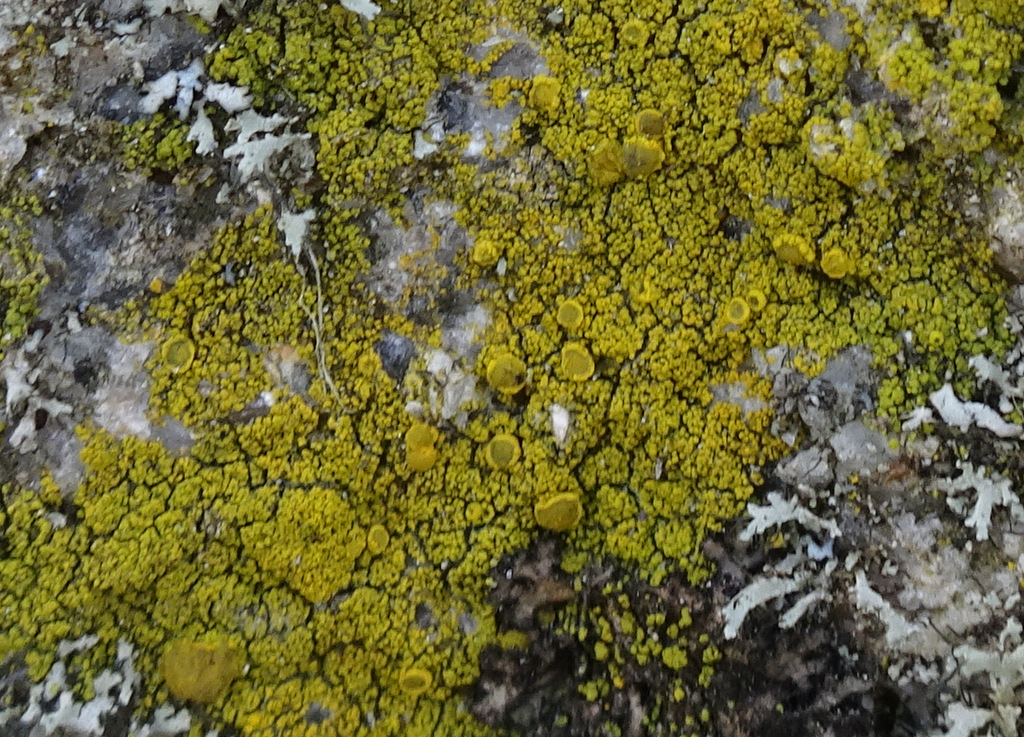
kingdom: Fungi
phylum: Ascomycota
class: Candelariomycetes
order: Candelariales
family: Candelariaceae
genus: Candelariella
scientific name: Candelariella vitellina
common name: almindelig æggeblommelav
